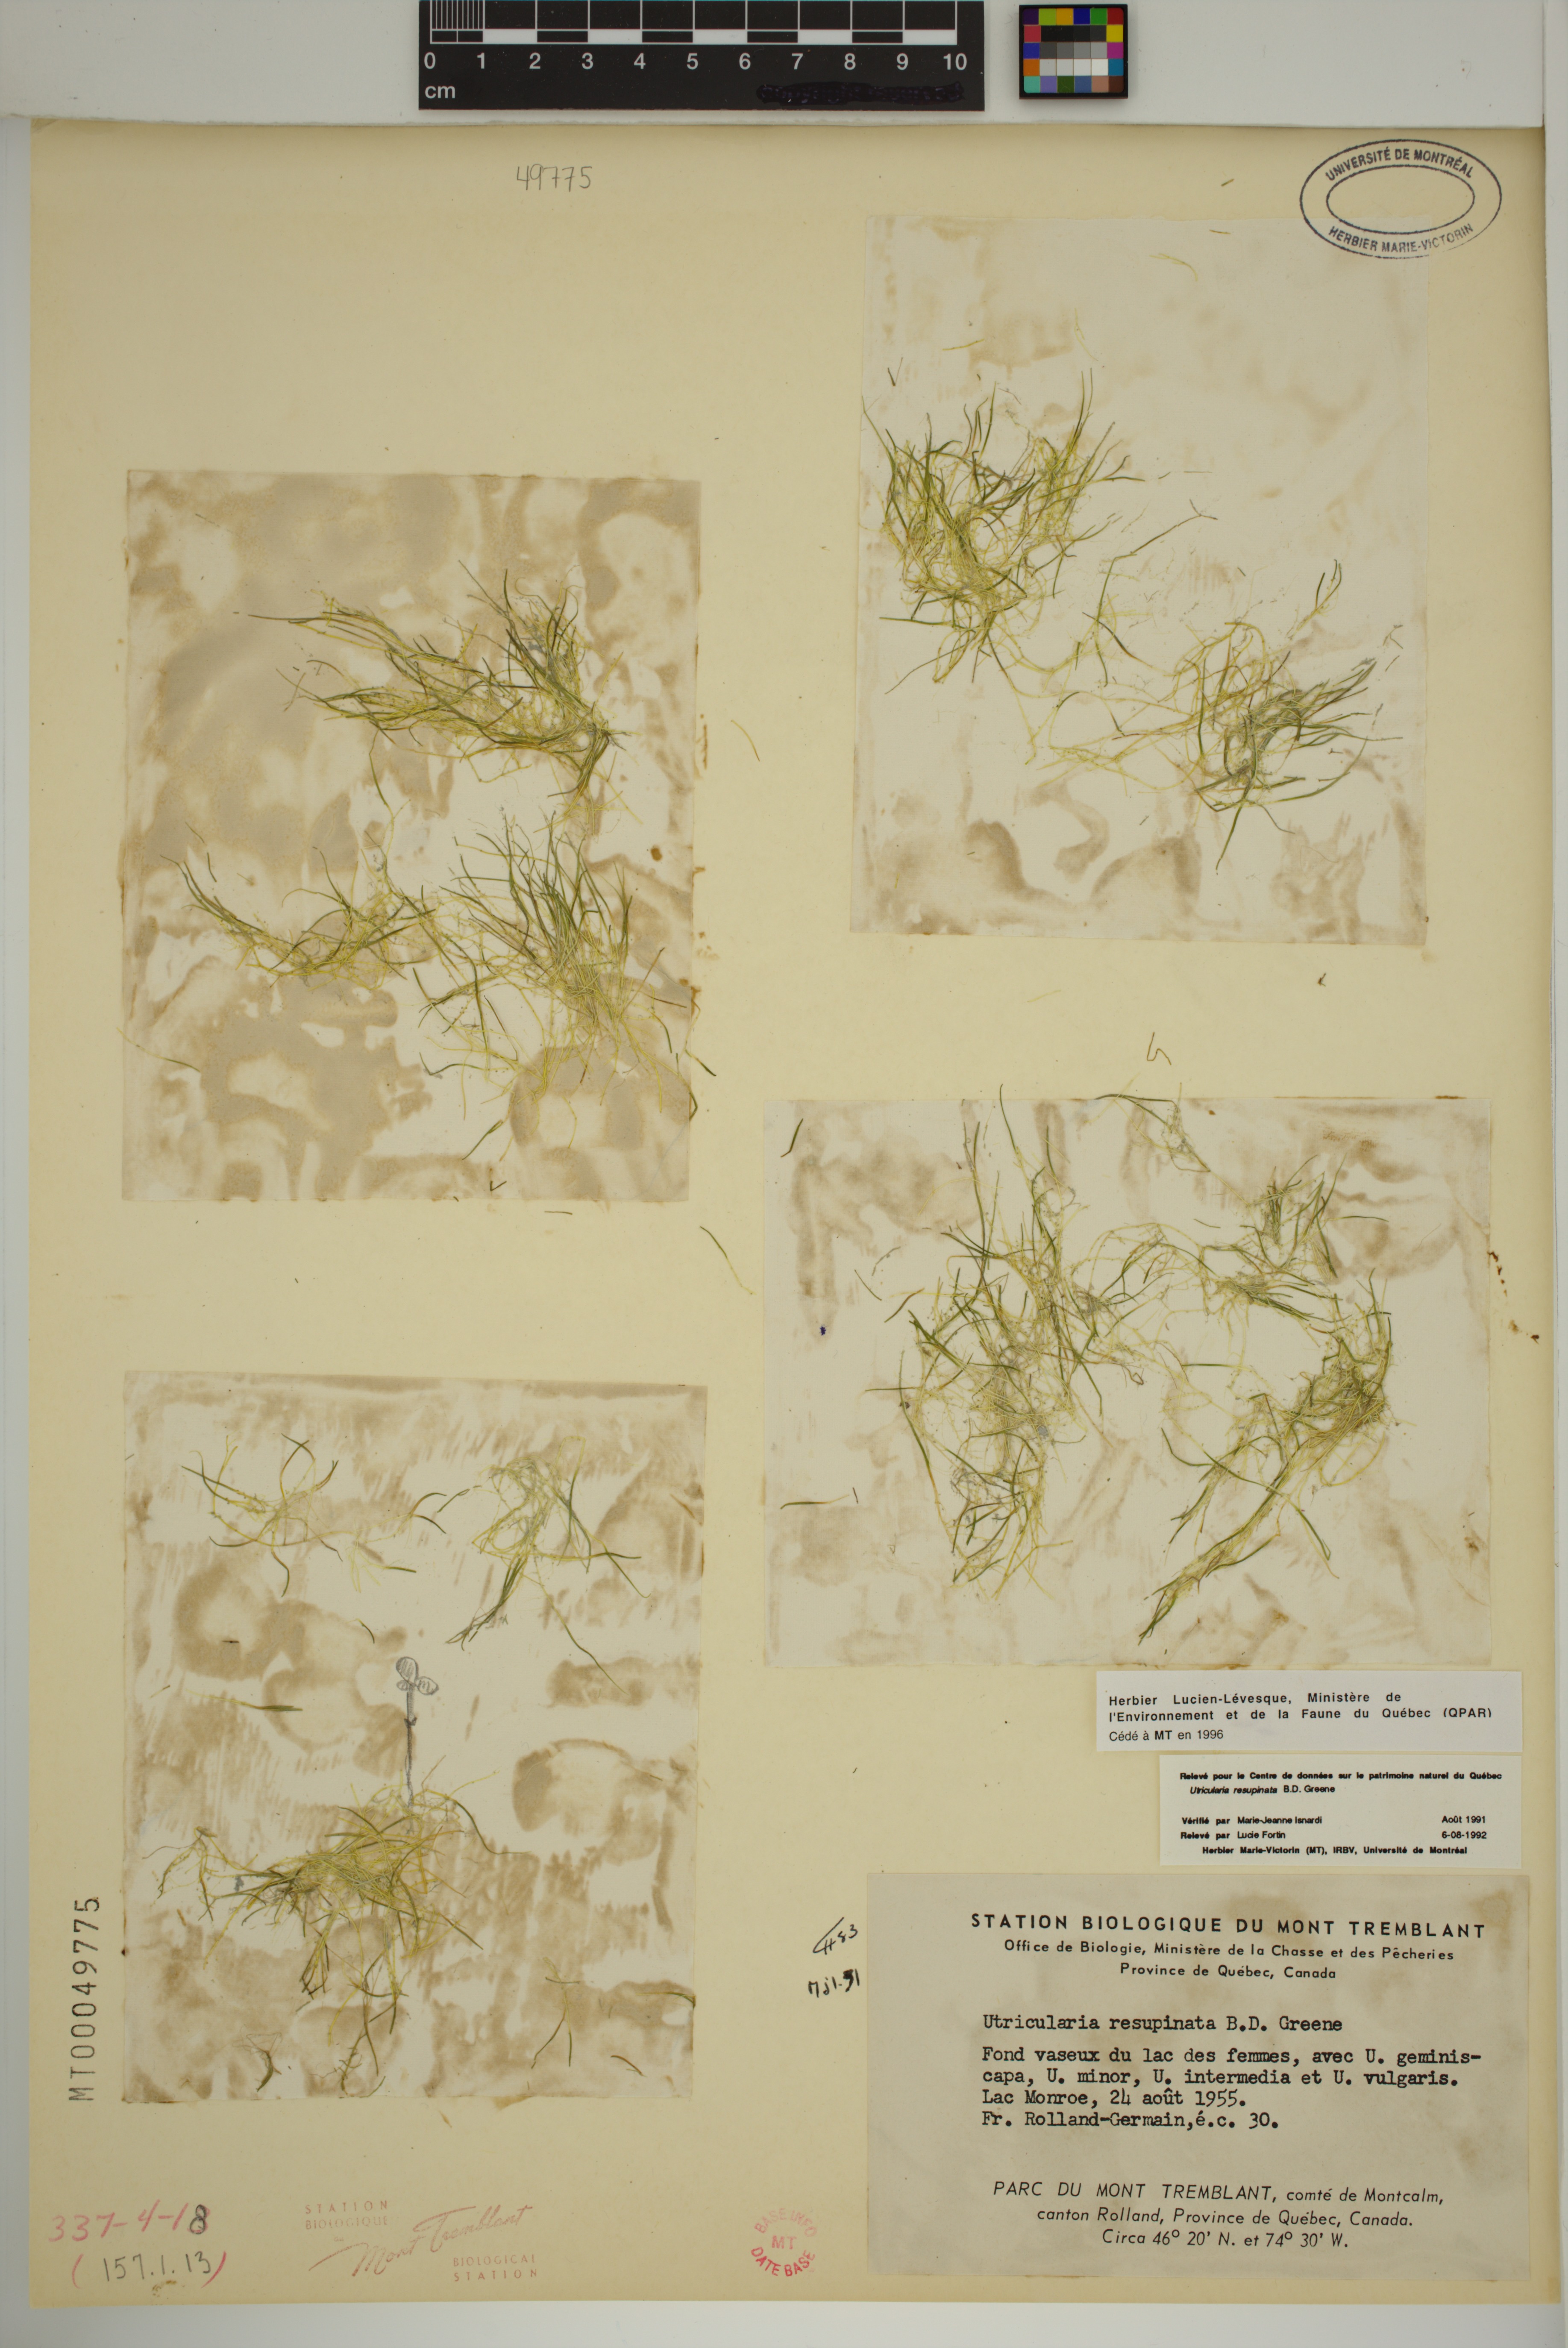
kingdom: Plantae
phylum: Tracheophyta
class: Magnoliopsida
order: Lamiales
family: Lentibulariaceae
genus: Utricularia
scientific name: Utricularia resupinata
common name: Northeastern bladderwort
